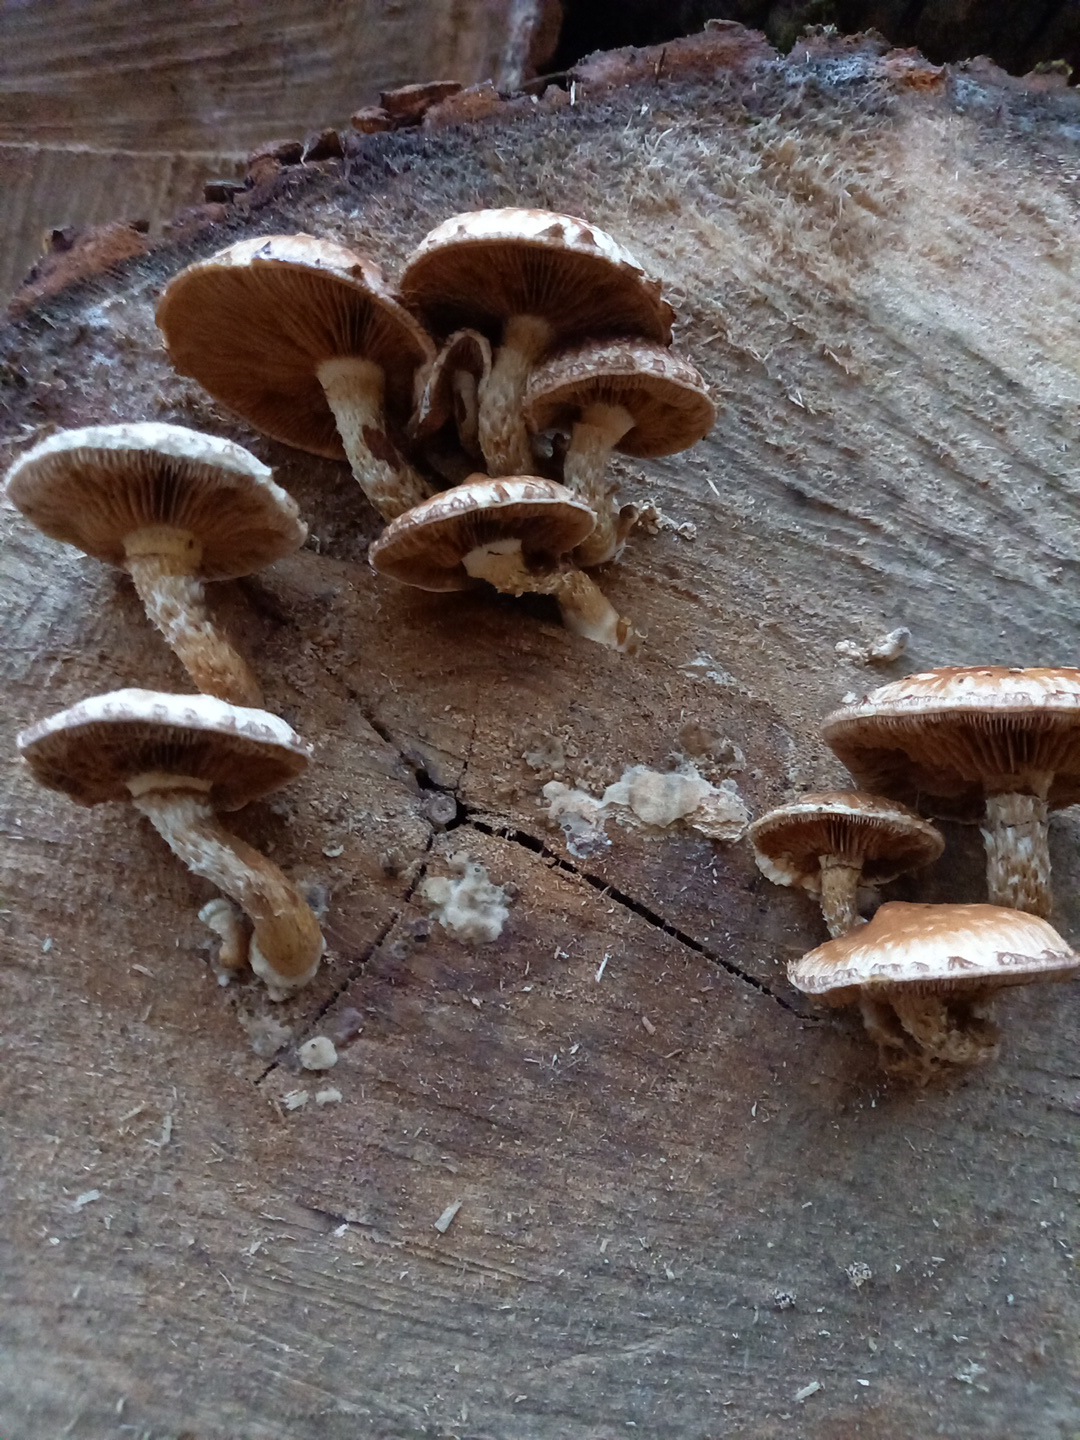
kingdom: Fungi
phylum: Basidiomycota
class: Agaricomycetes
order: Agaricales
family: Strophariaceae
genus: Pholiota
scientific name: Pholiota populnea
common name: poppel-kæmpeskælhat
